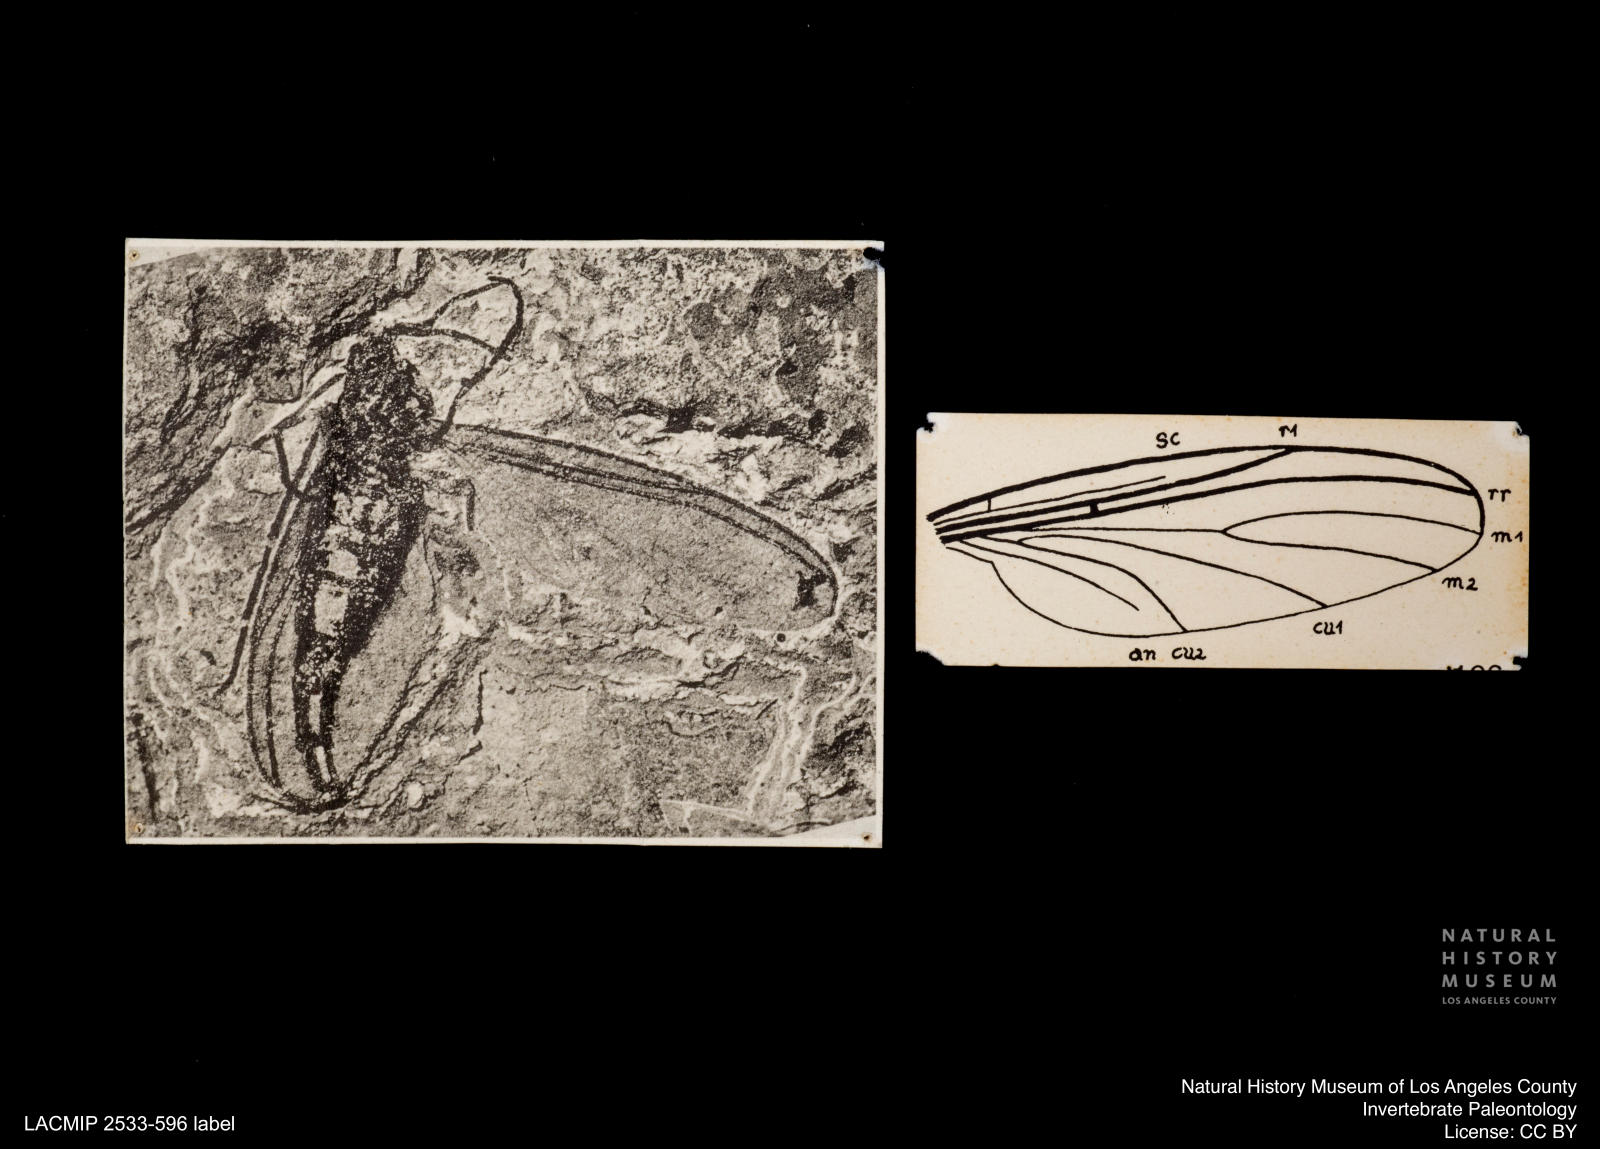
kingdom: Animalia
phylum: Arthropoda
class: Insecta
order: Diptera
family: Sciaridae
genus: Sciara
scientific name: Sciara pelidua
